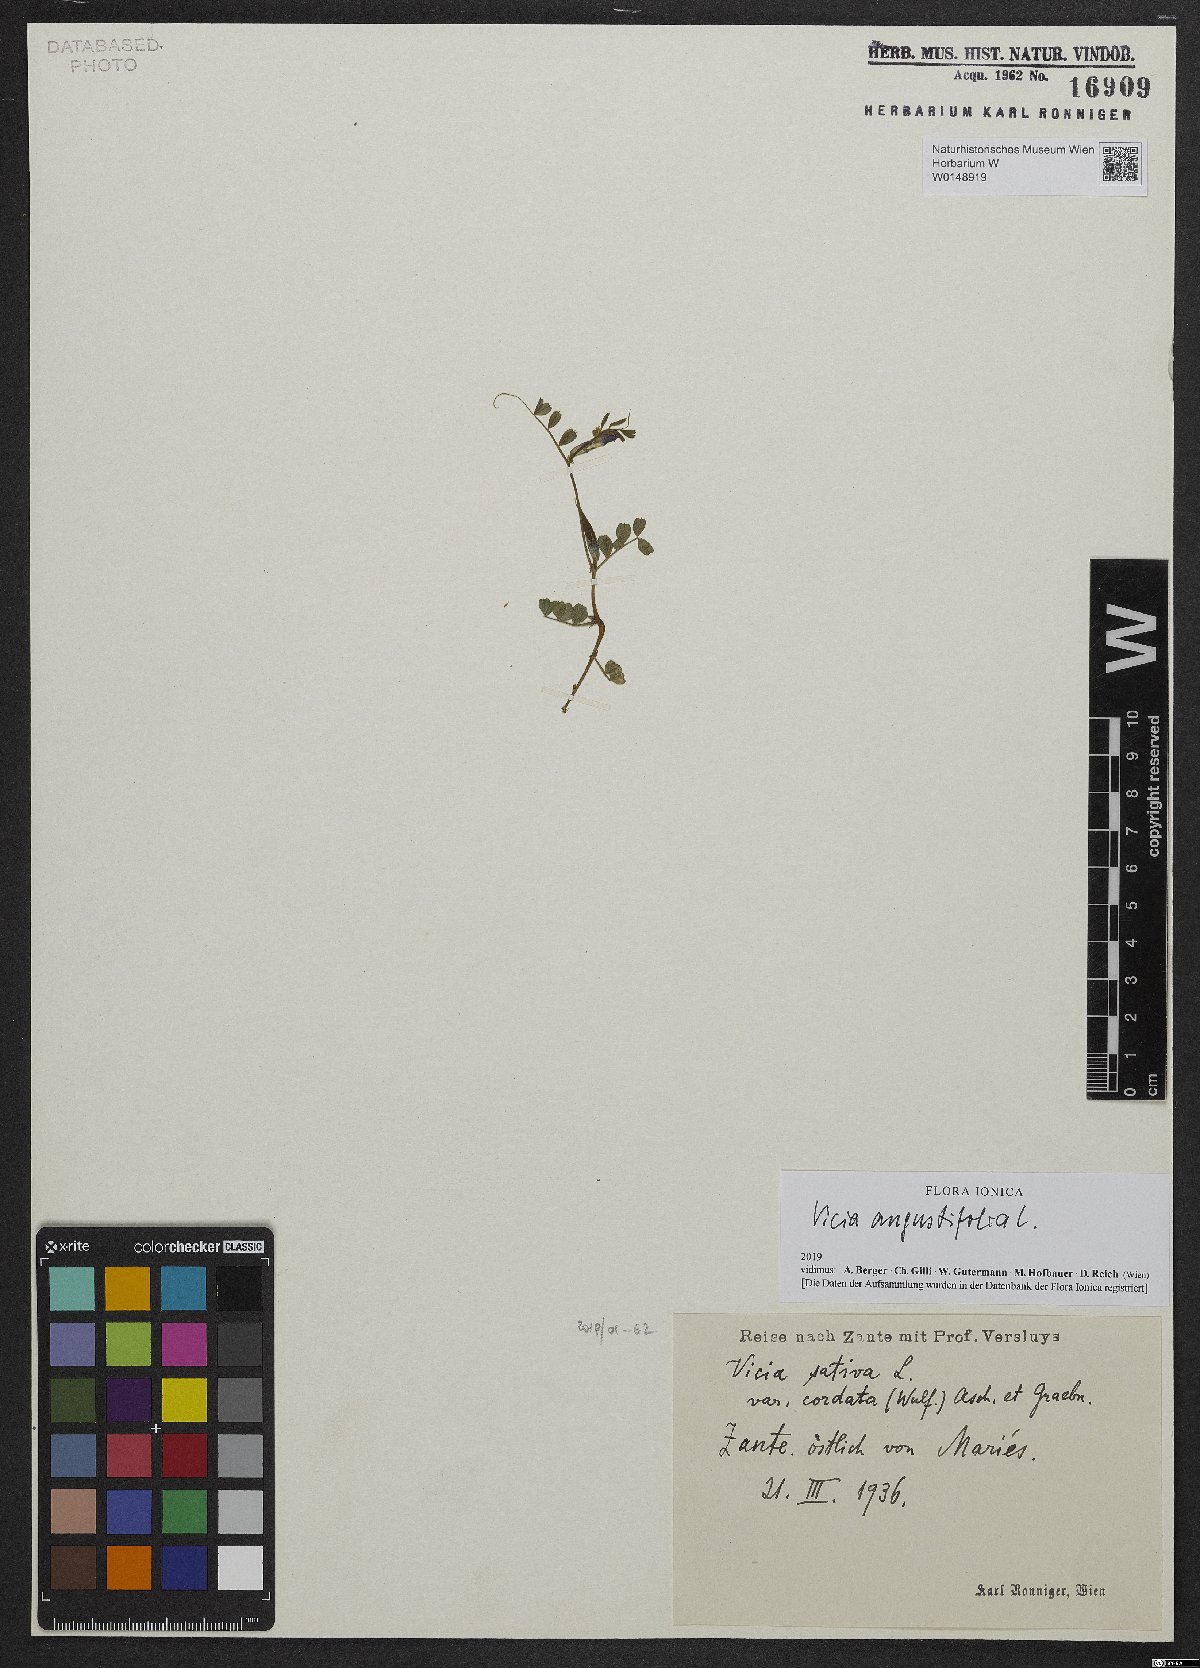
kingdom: Plantae
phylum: Tracheophyta
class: Magnoliopsida
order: Fabales
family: Fabaceae
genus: Vicia
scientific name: Vicia sativa
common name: Garden vetch
